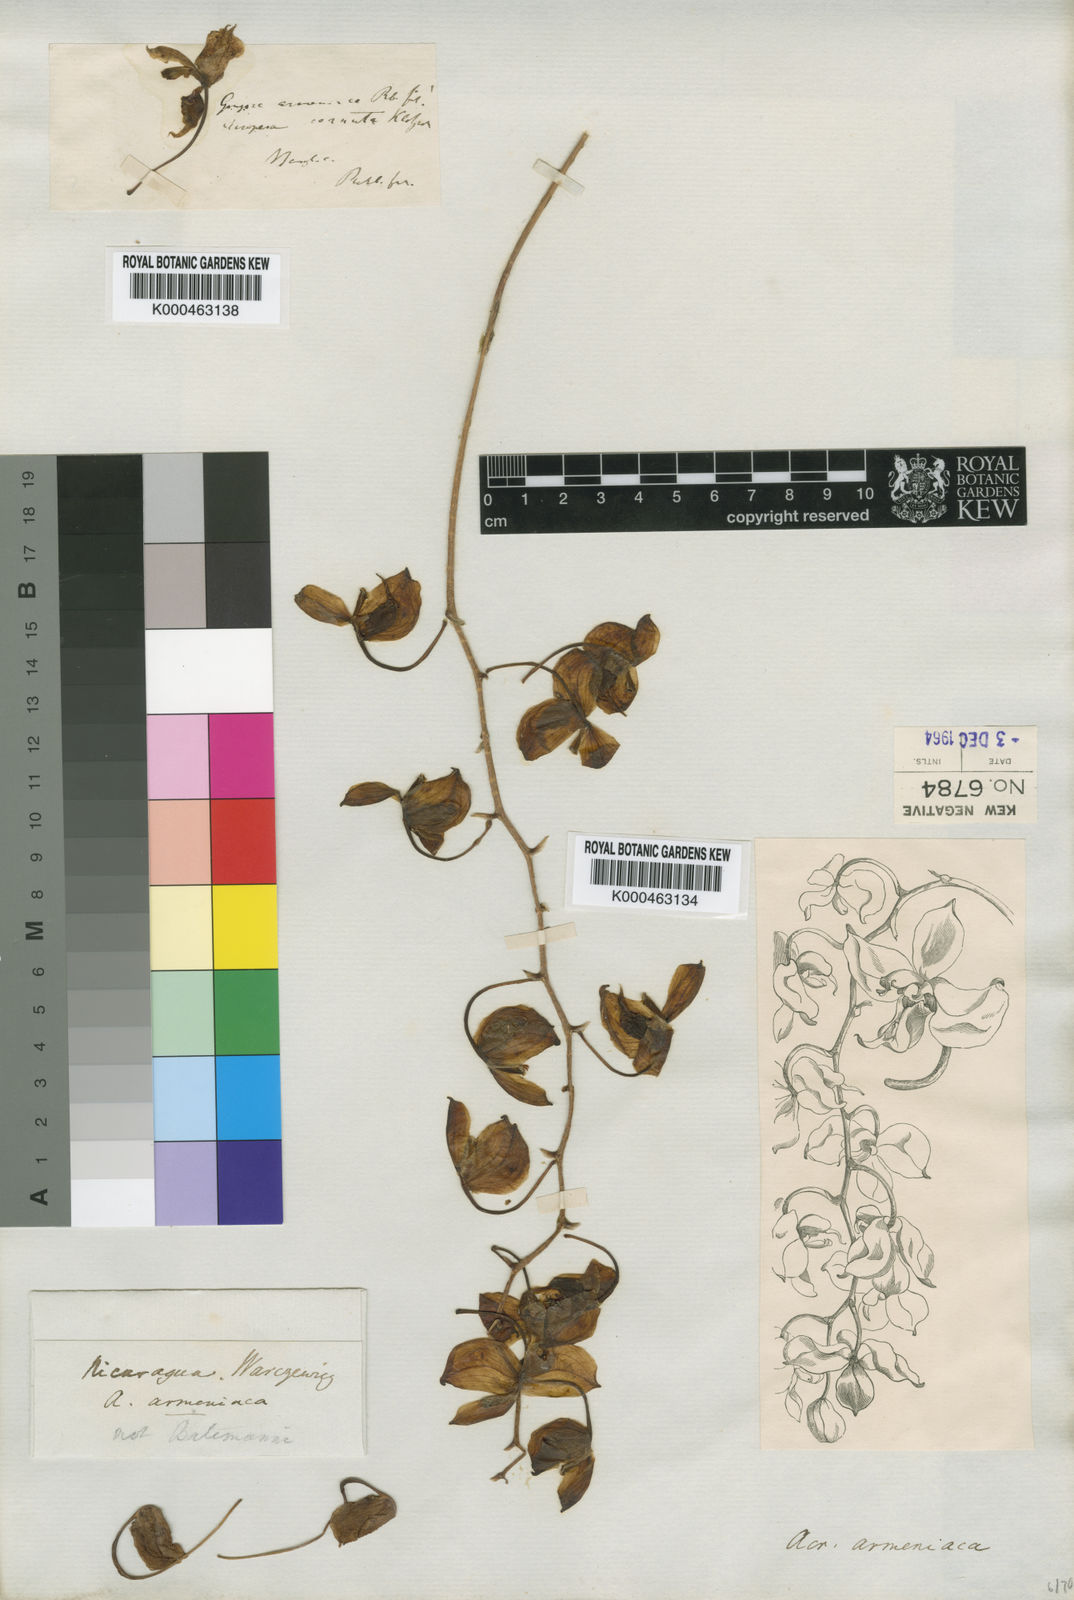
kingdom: Plantae
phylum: Tracheophyta
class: Liliopsida
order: Asparagales
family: Orchidaceae
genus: Gongora
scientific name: Gongora armeniaca
